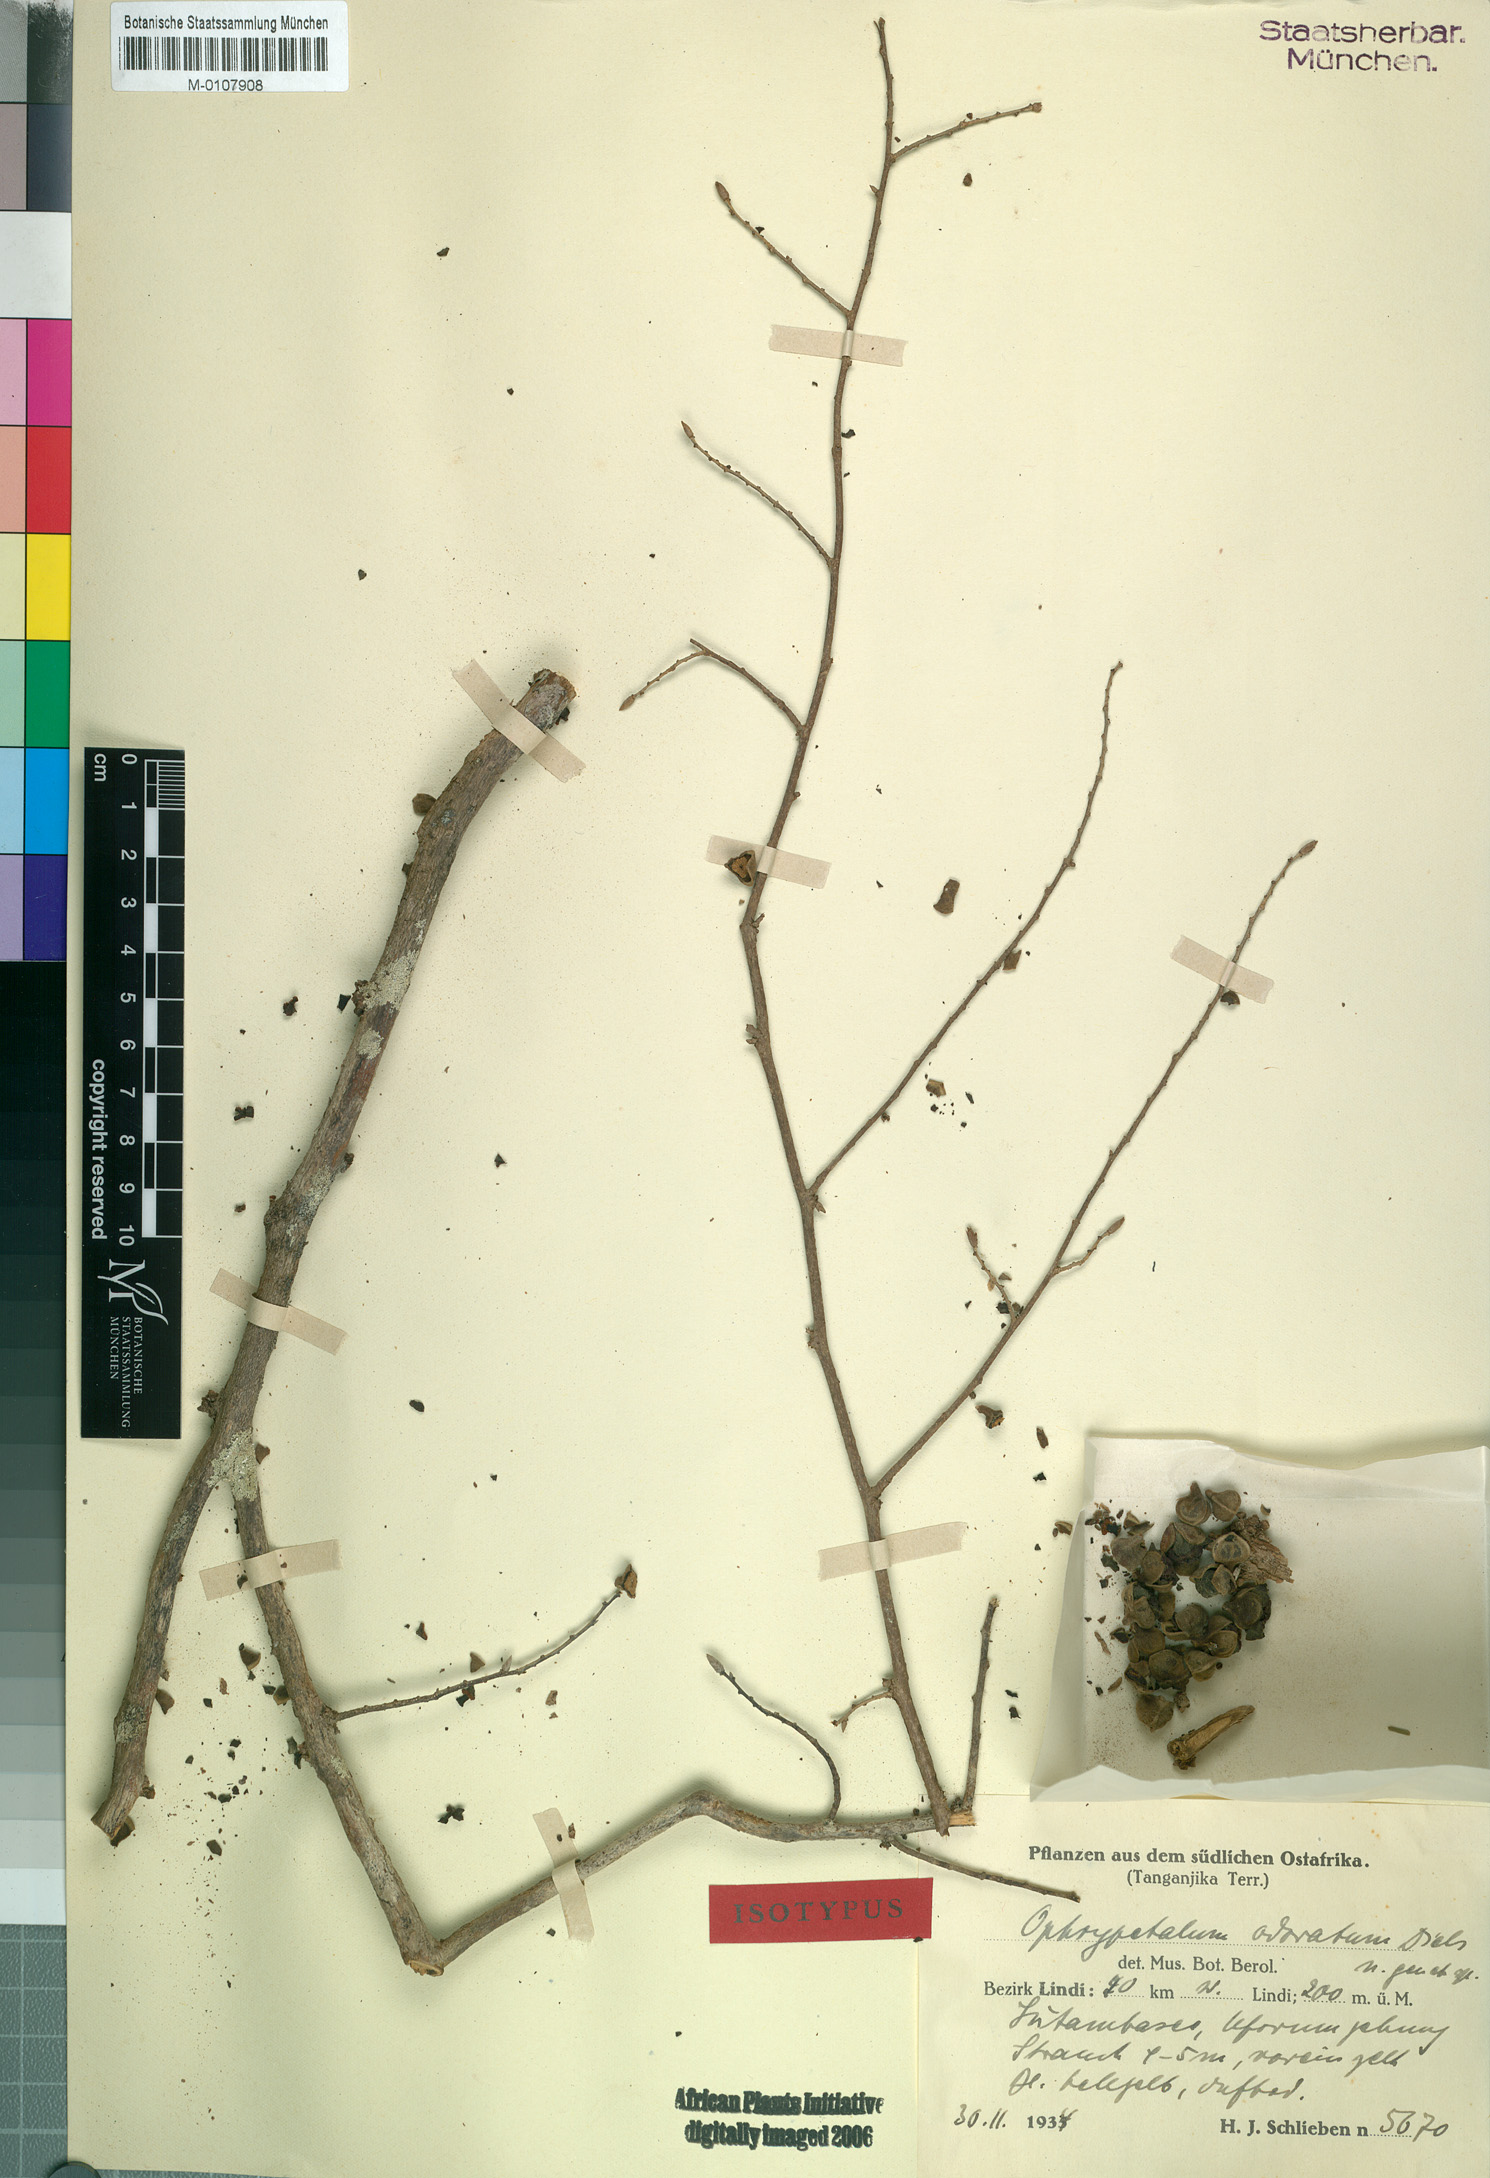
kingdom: Plantae
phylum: Tracheophyta
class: Magnoliopsida
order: Magnoliales
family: Annonaceae
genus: Ophrypetalum
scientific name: Ophrypetalum odoratum
